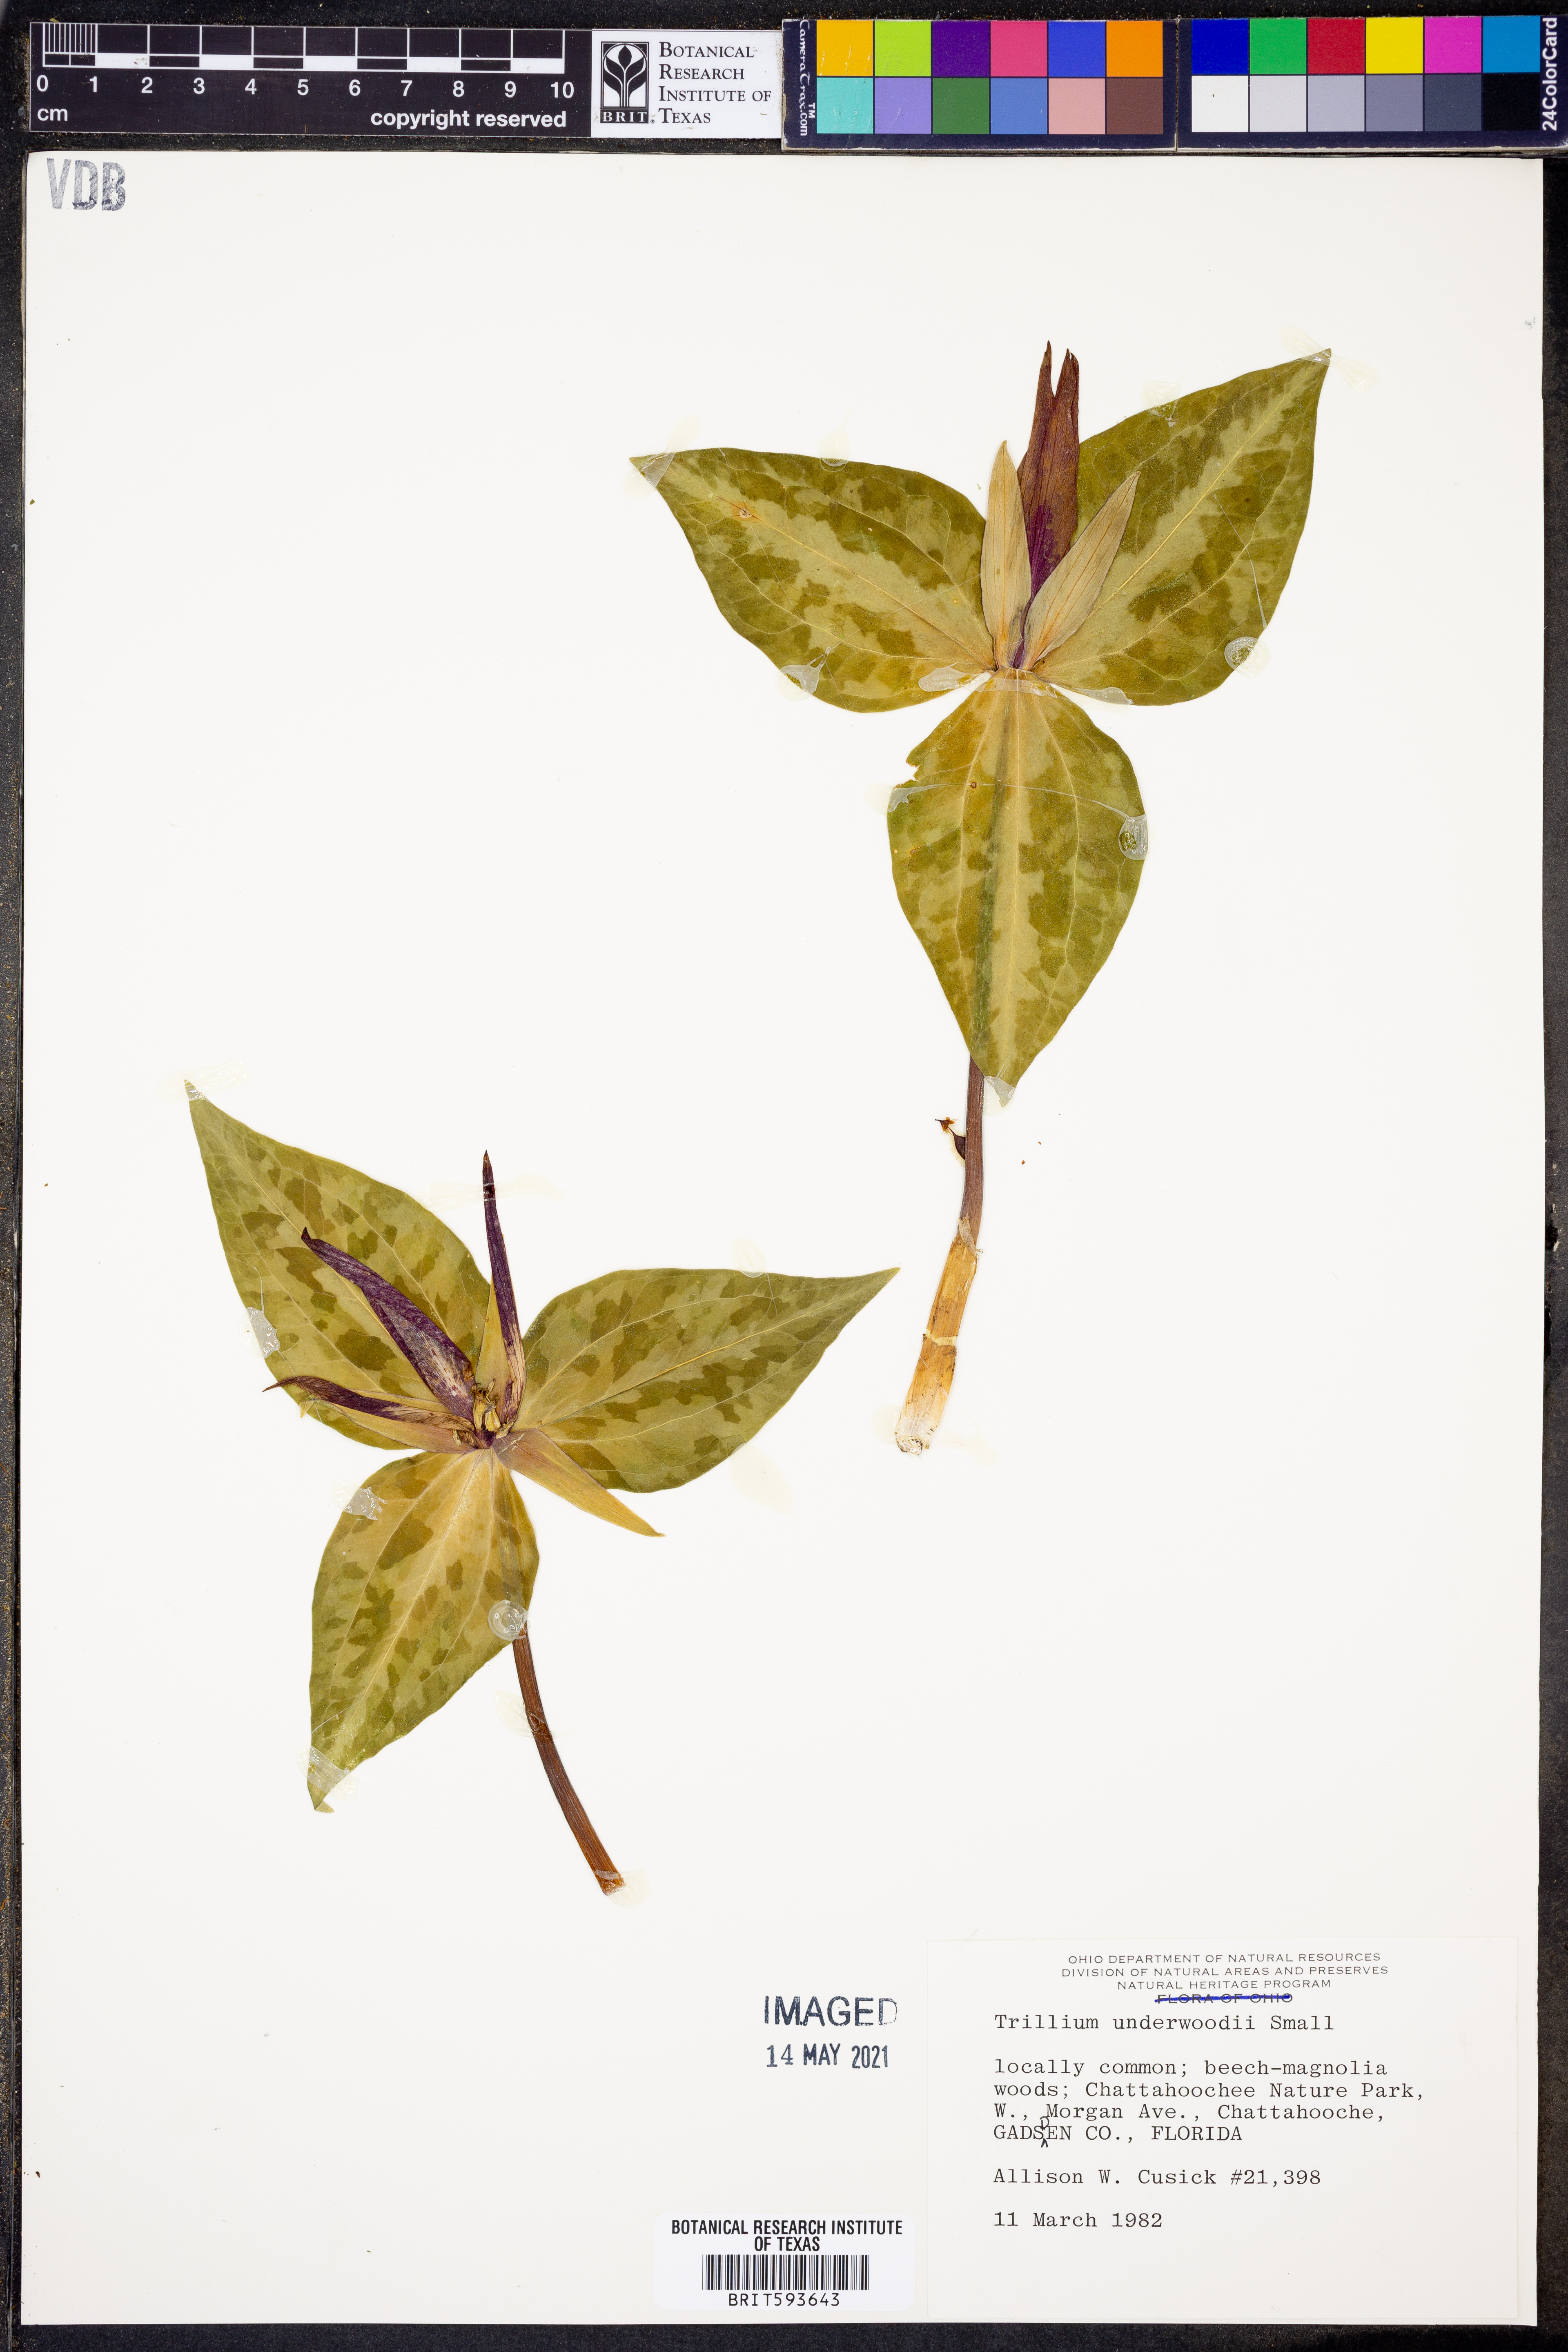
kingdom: Plantae
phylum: Tracheophyta
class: Liliopsida
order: Liliales
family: Melanthiaceae
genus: Trillium
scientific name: Trillium underwoodii
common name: Longbract wakerobin
